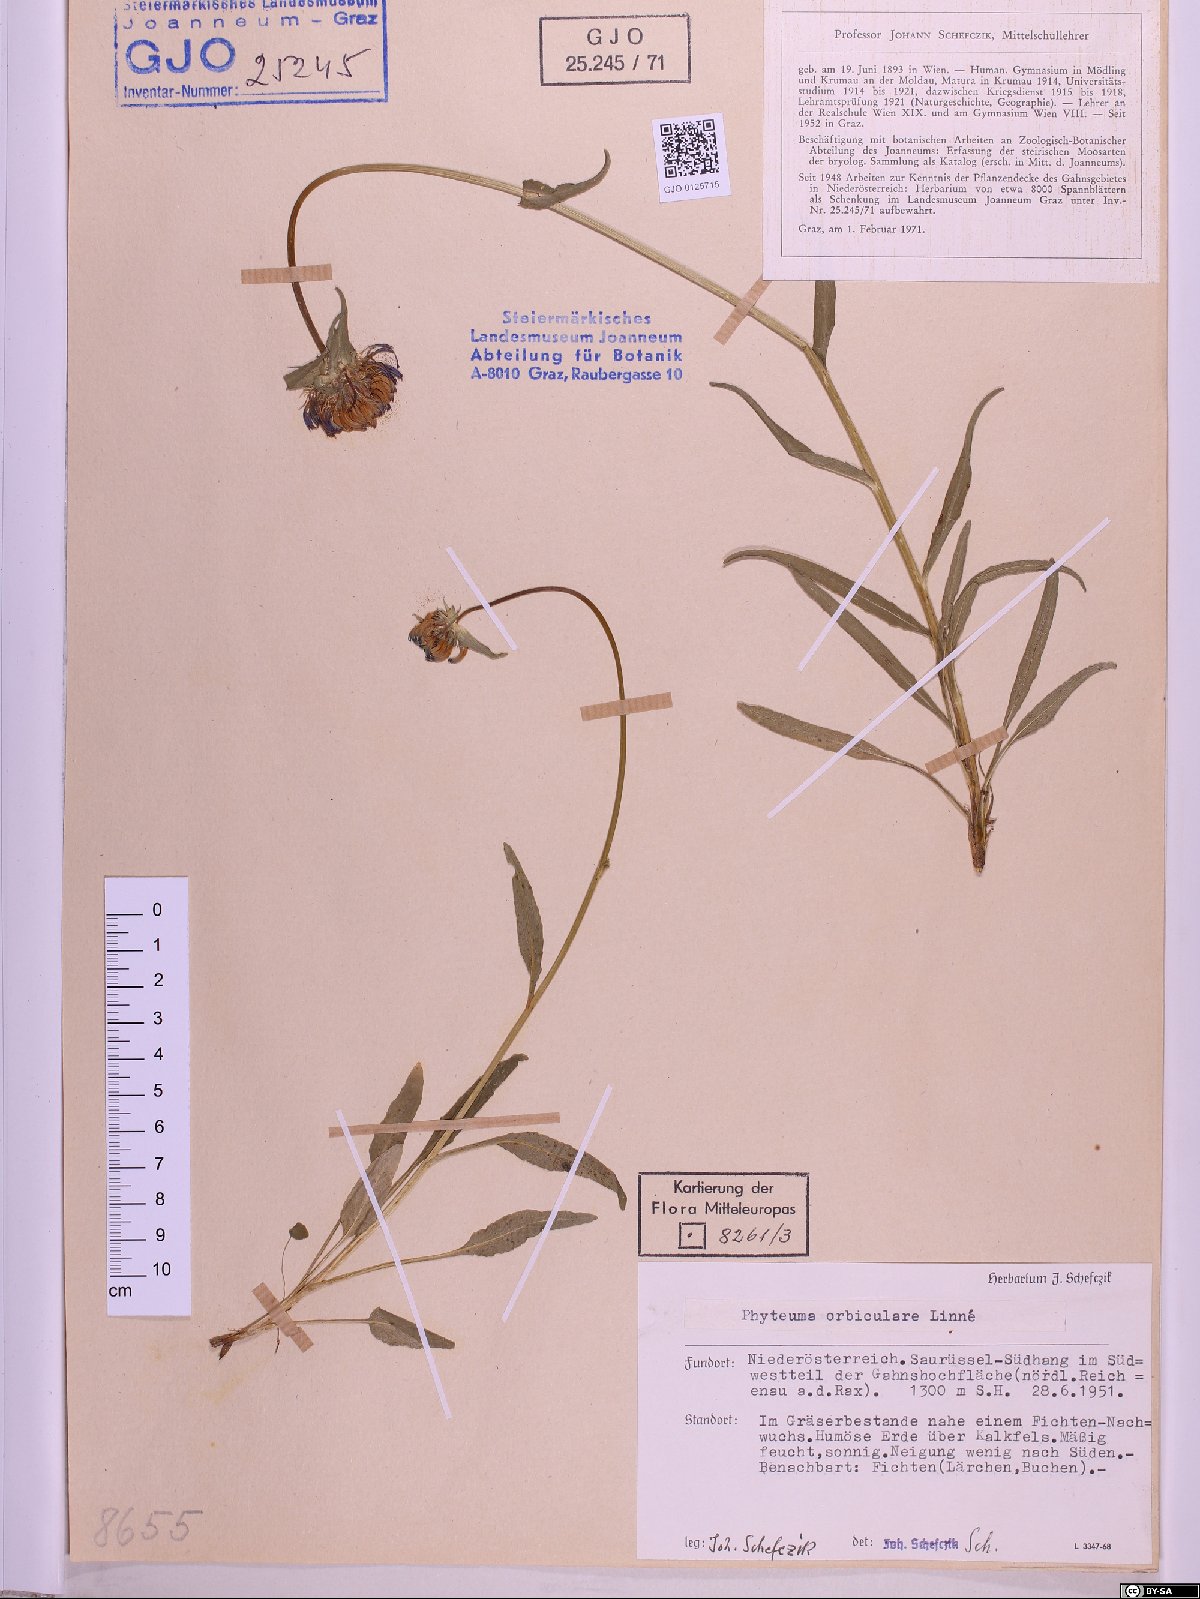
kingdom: Plantae
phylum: Tracheophyta
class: Magnoliopsida
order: Asterales
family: Campanulaceae
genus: Phyteuma
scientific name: Phyteuma orbiculare
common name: Round-headed rampion
